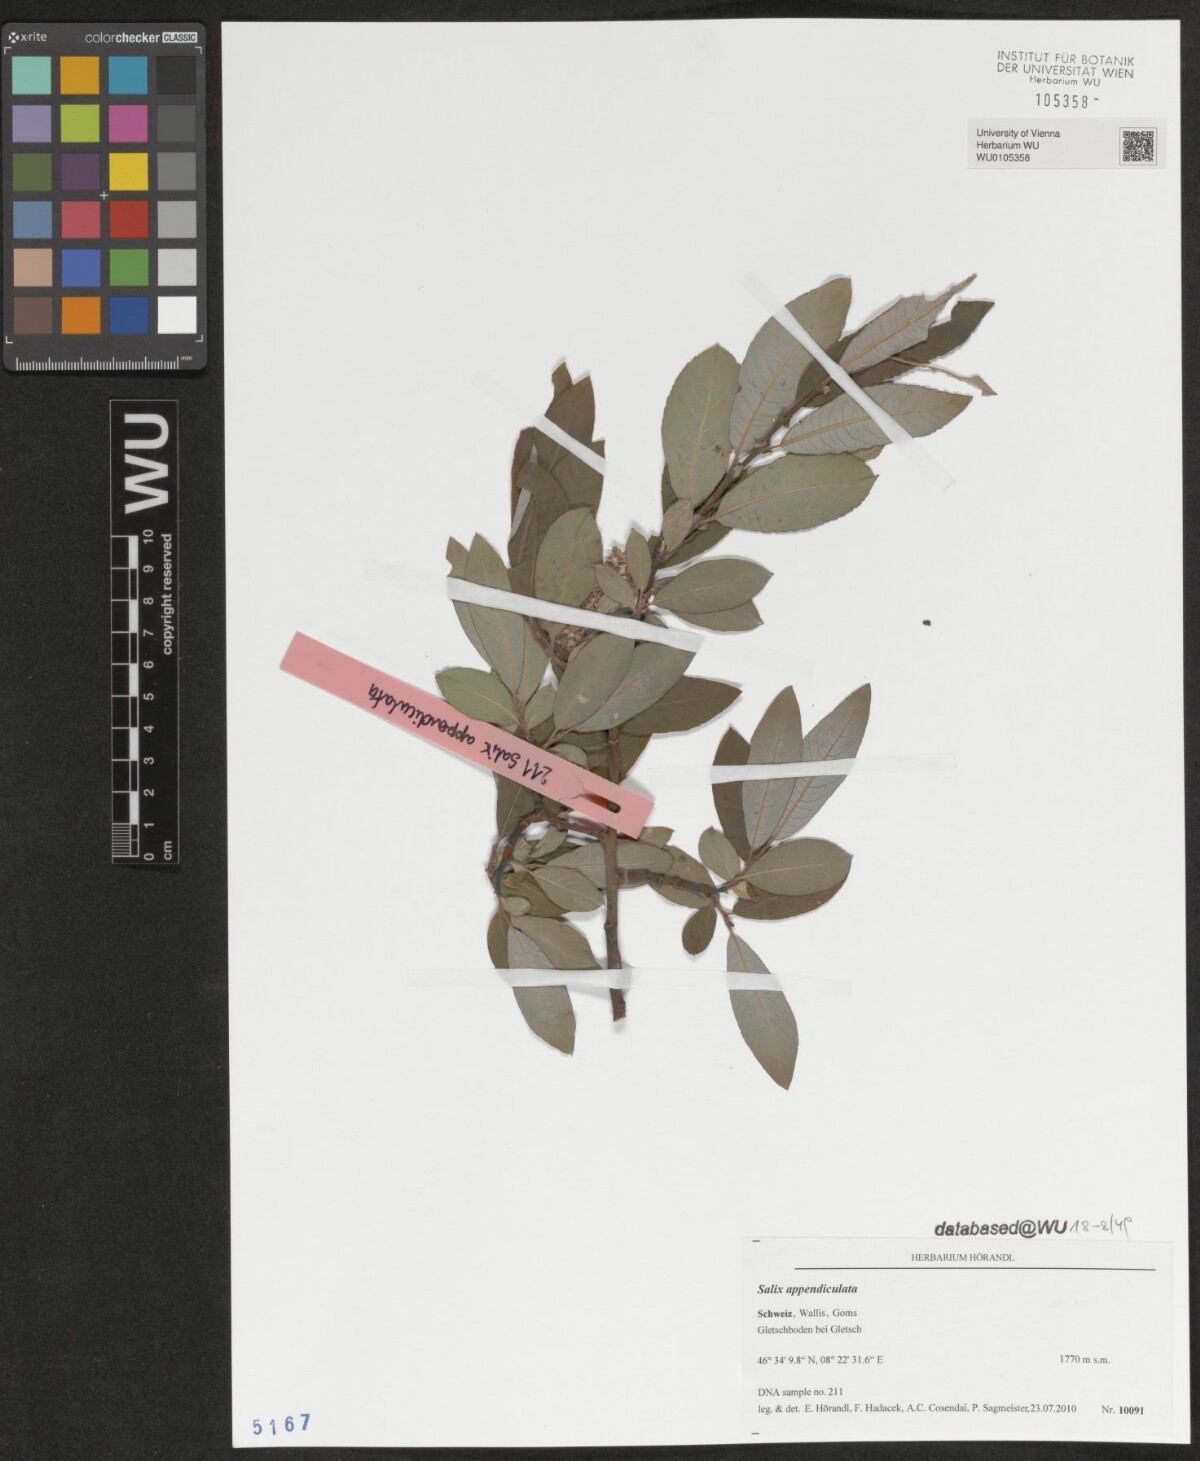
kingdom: Plantae
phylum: Tracheophyta
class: Magnoliopsida
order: Malpighiales
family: Salicaceae
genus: Salix
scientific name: Salix appendiculata
